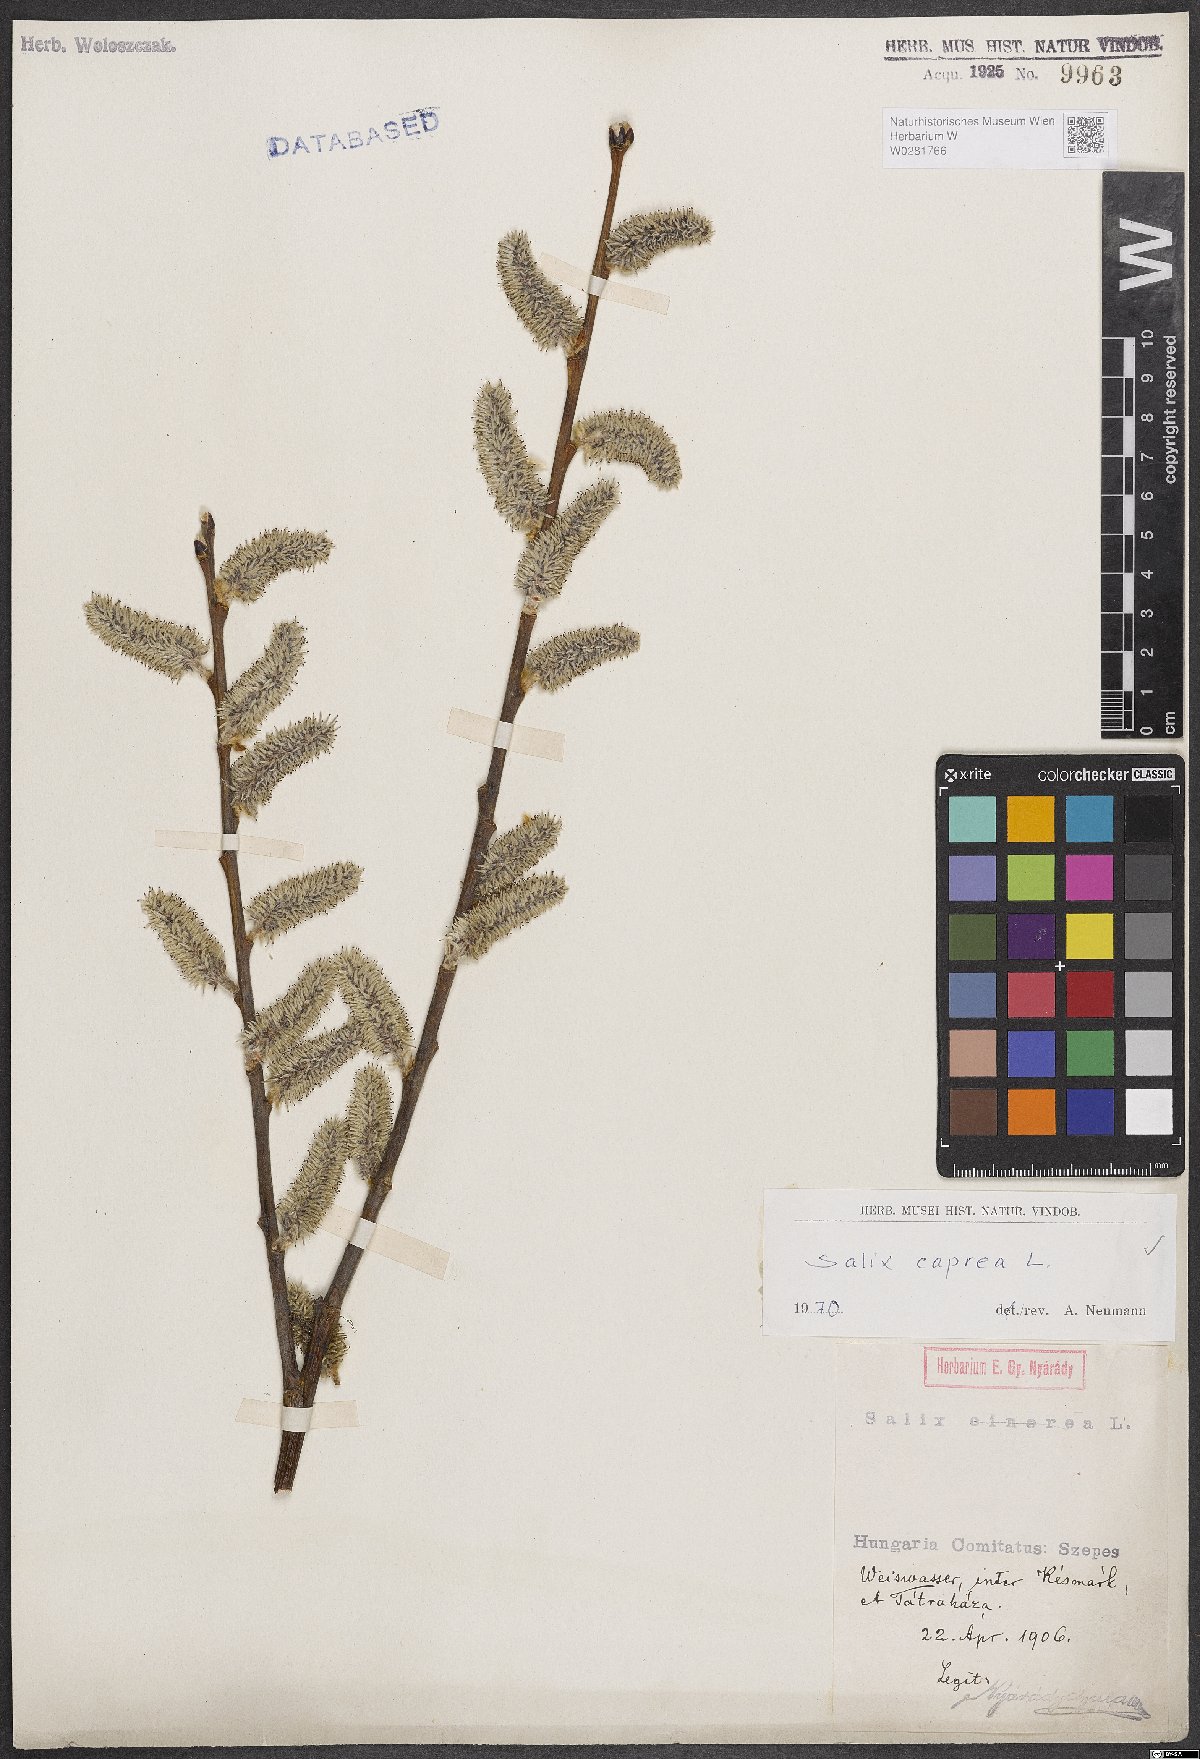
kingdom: Plantae
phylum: Tracheophyta
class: Magnoliopsida
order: Malpighiales
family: Salicaceae
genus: Salix
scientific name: Salix caprea
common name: Goat willow
